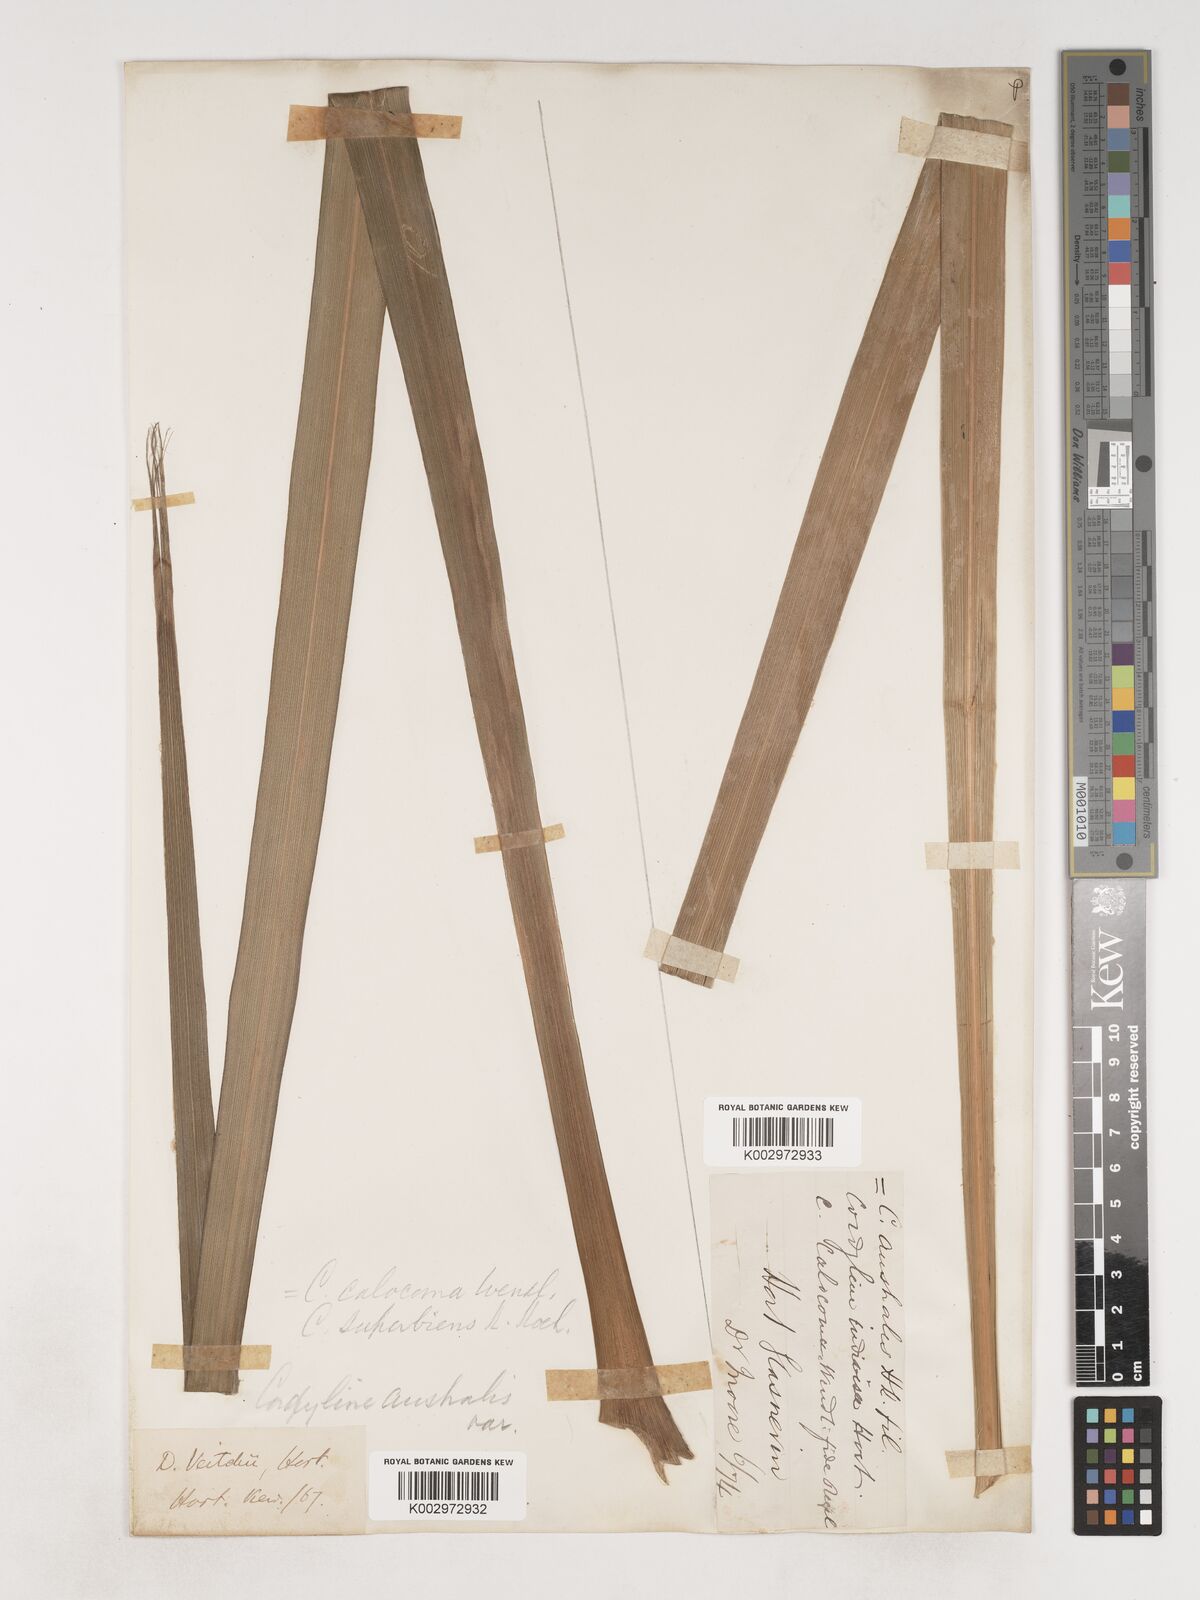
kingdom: Plantae
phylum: Tracheophyta
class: Liliopsida
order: Asparagales
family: Asparagaceae
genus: Cordyline
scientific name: Cordyline australis
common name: Cabbage-palm
